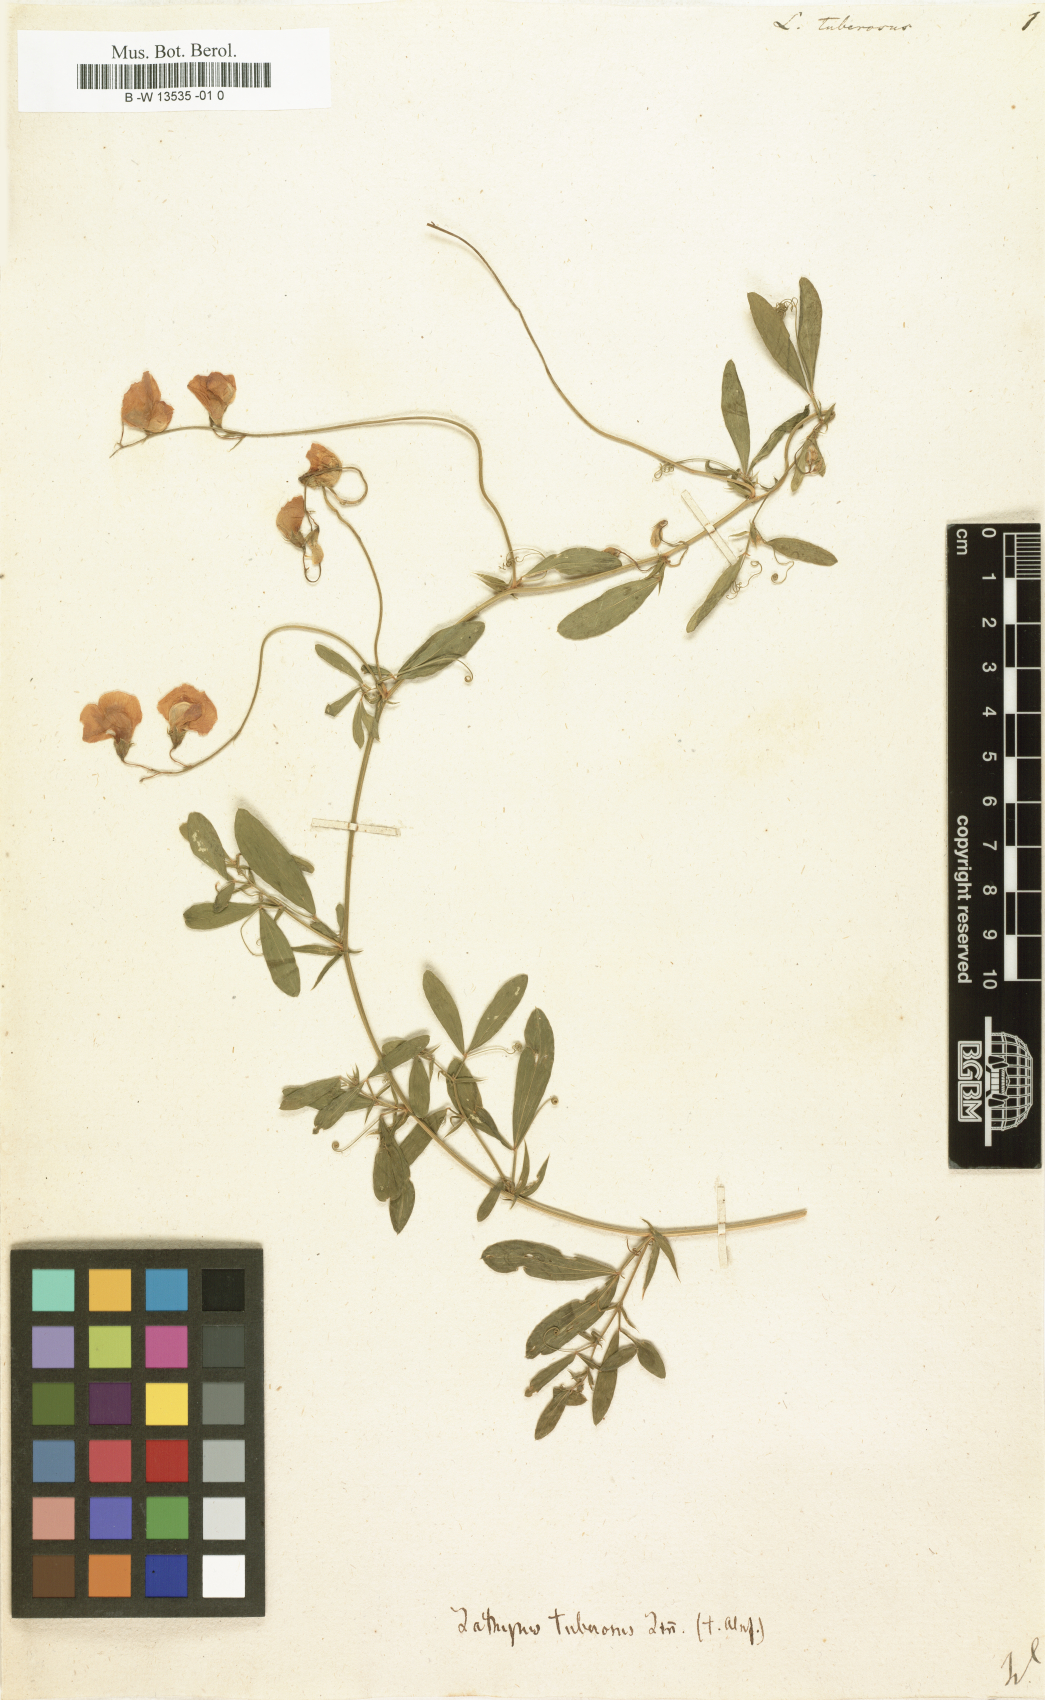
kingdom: Plantae
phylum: Tracheophyta
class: Magnoliopsida
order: Fabales
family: Fabaceae
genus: Lathyrus
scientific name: Lathyrus tuberosus
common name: Tuberous pea
